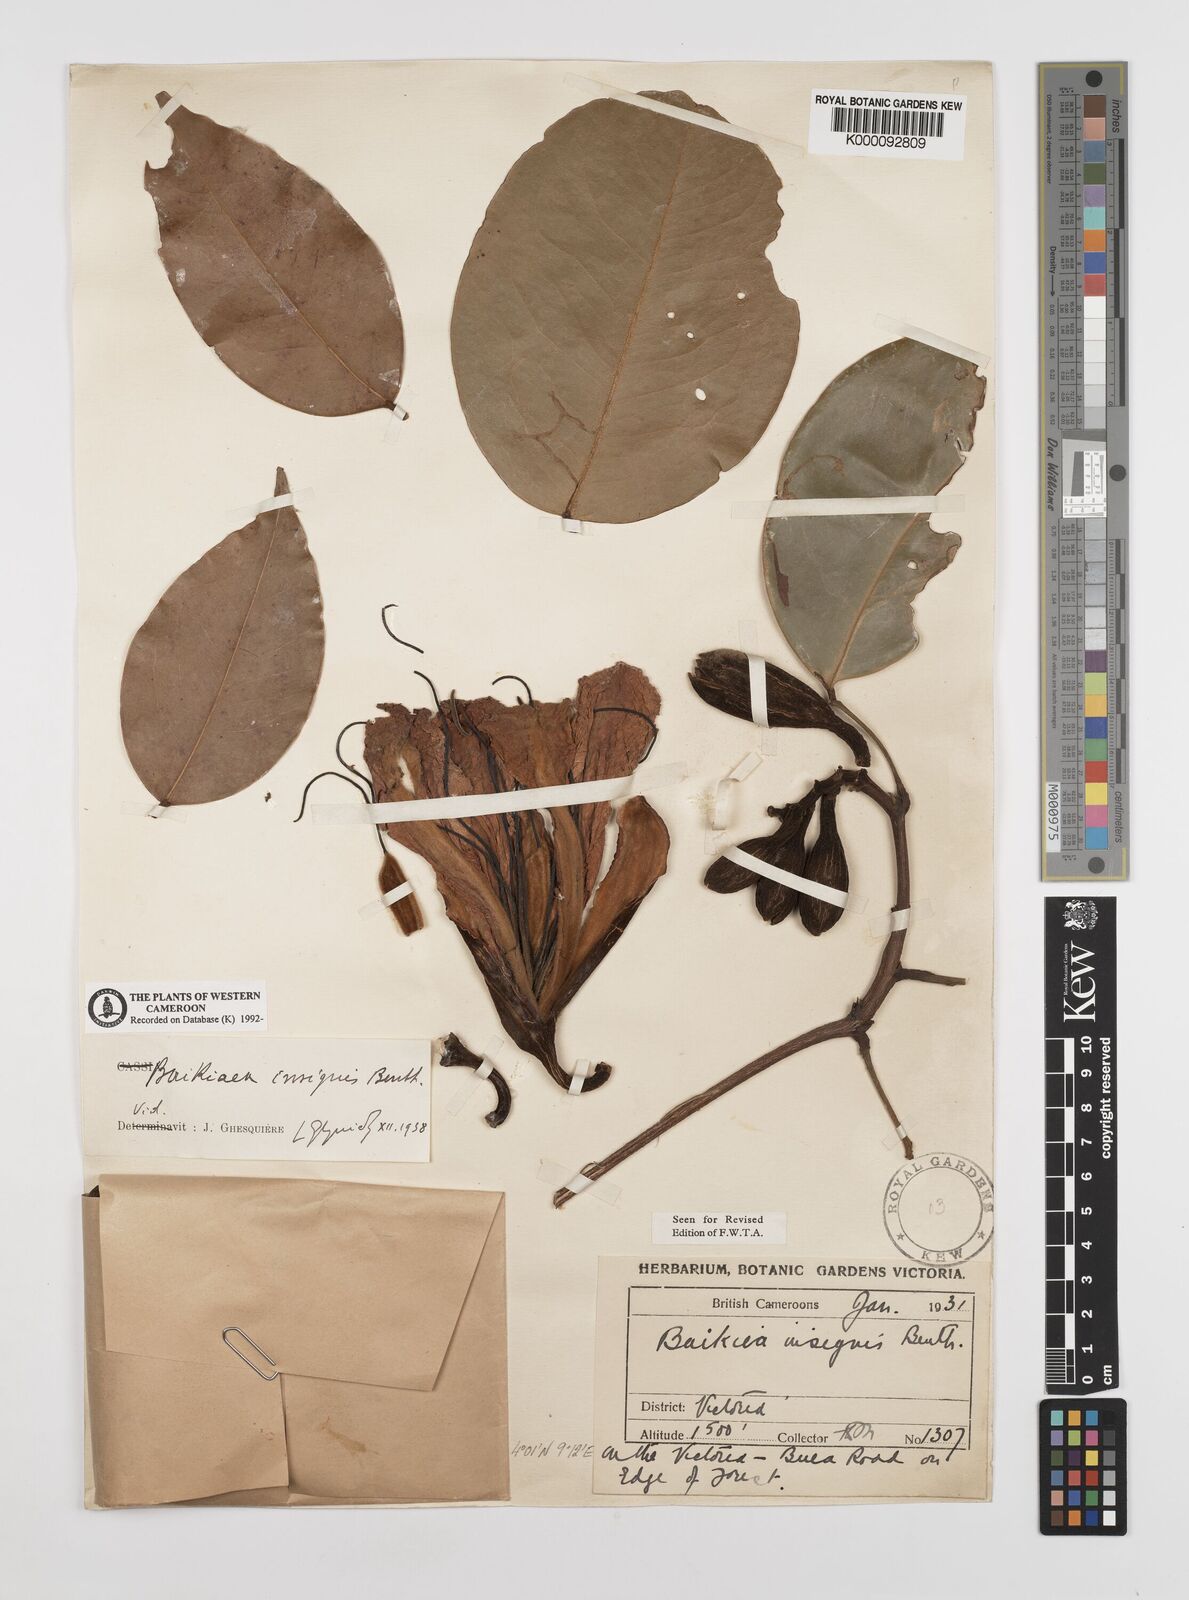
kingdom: Plantae
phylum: Tracheophyta
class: Magnoliopsida
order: Fabales
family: Fabaceae
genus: Baikiaea
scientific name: Baikiaea insignis
